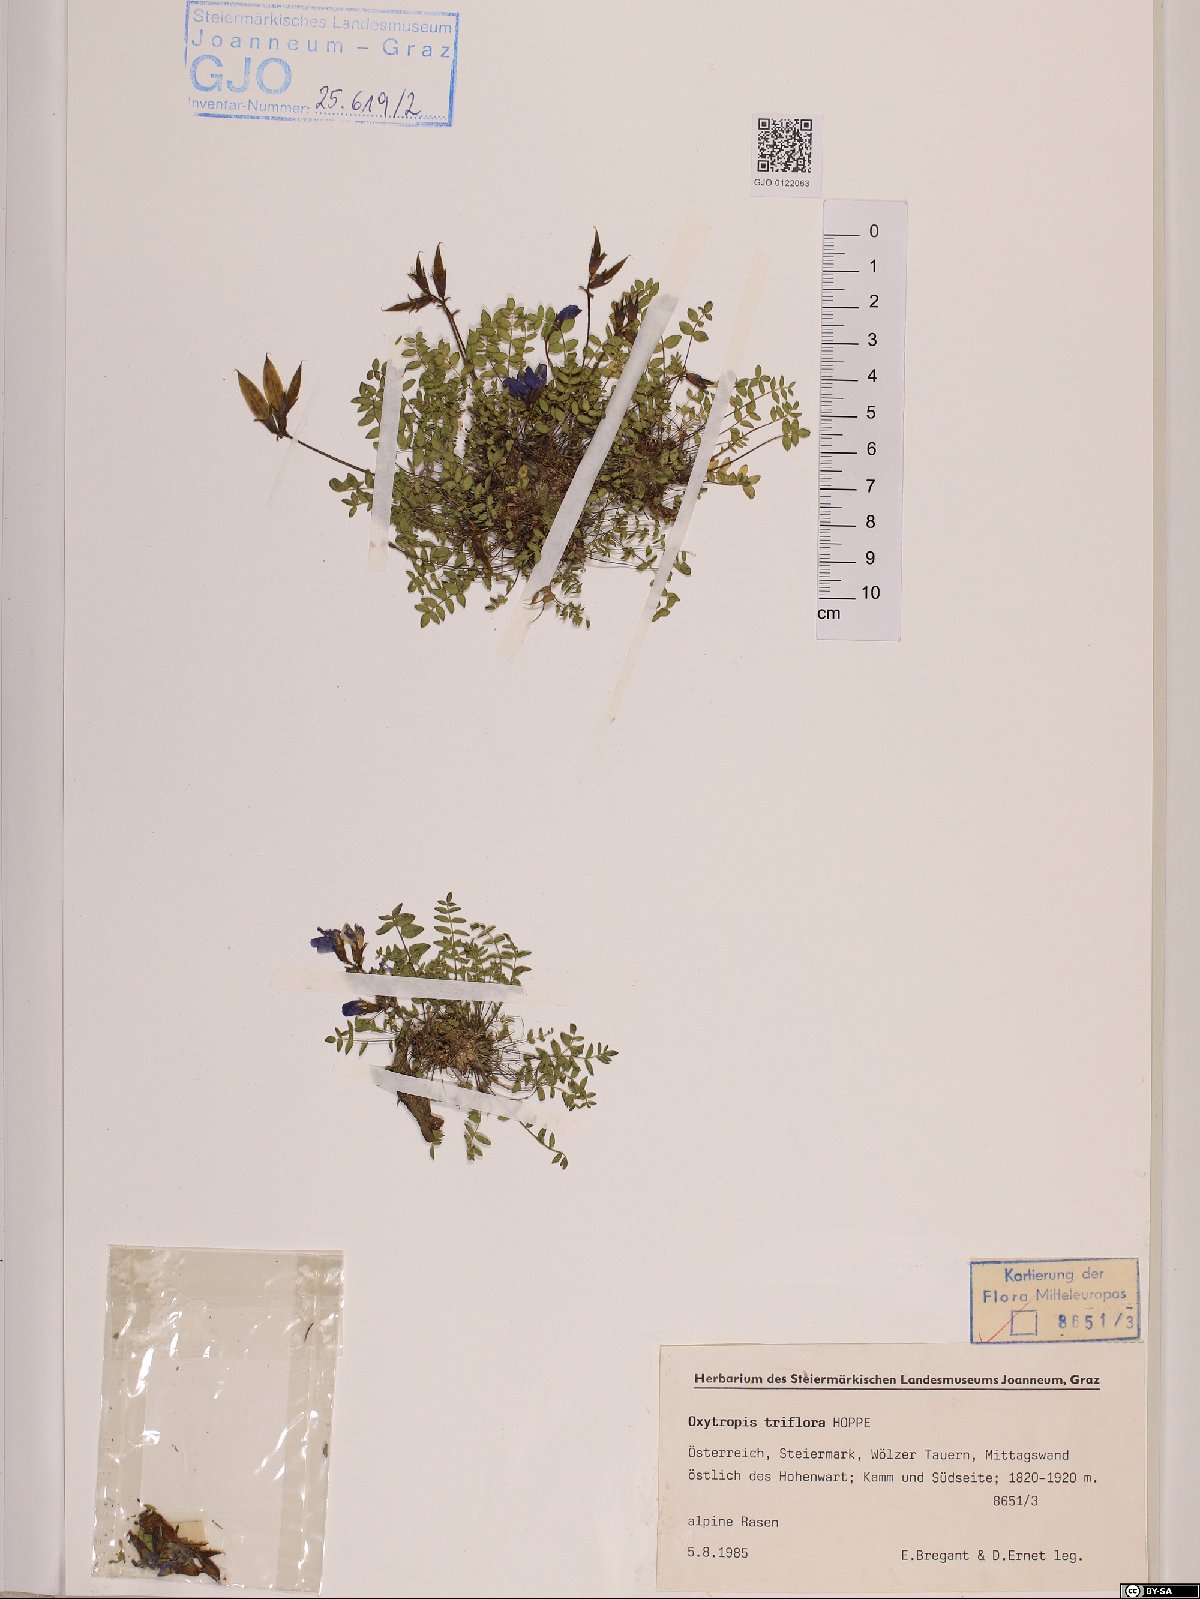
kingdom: Plantae
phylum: Tracheophyta
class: Magnoliopsida
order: Fabales
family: Fabaceae
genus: Oxytropis
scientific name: Oxytropis triflora
